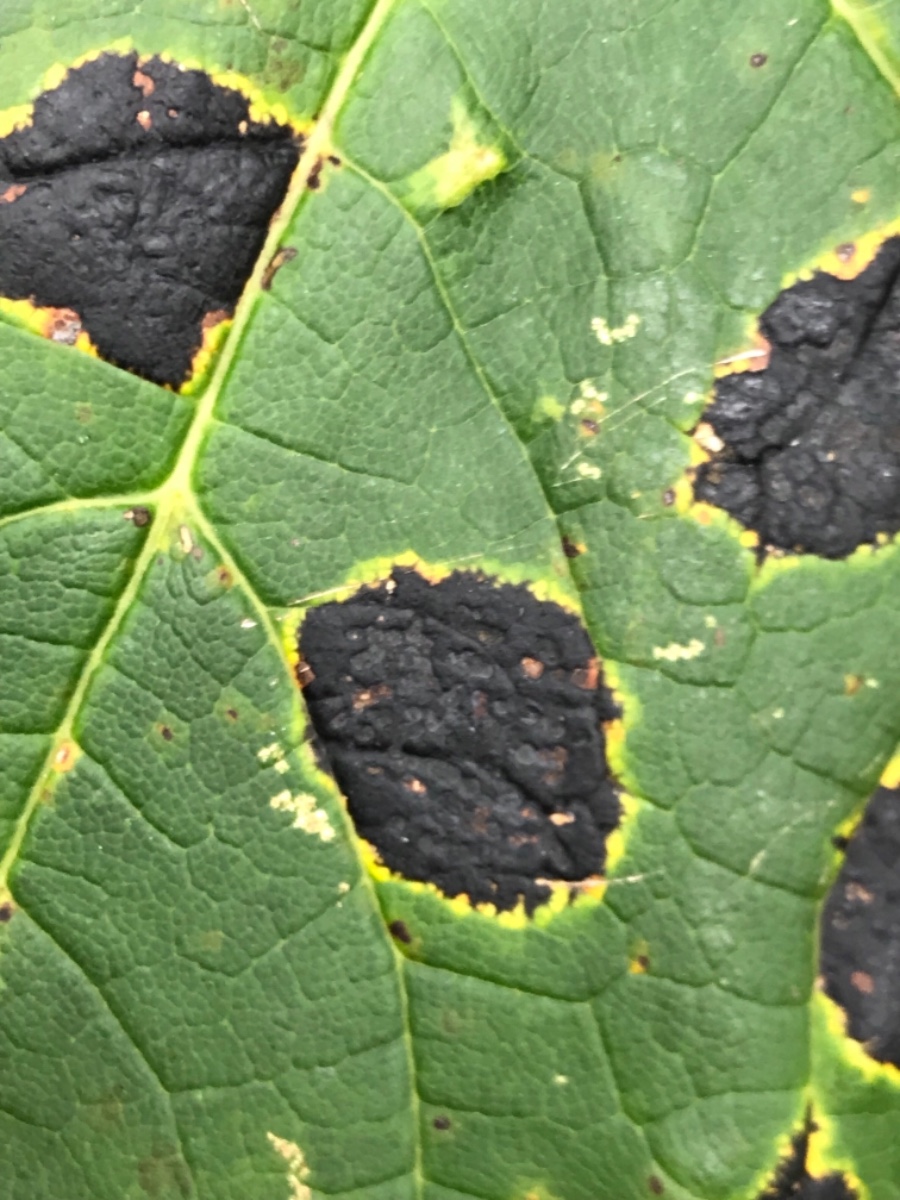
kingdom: Fungi
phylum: Ascomycota
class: Leotiomycetes
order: Rhytismatales
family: Rhytismataceae
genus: Rhytisma
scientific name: Rhytisma acerinum
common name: ahorn-rynkeplet
